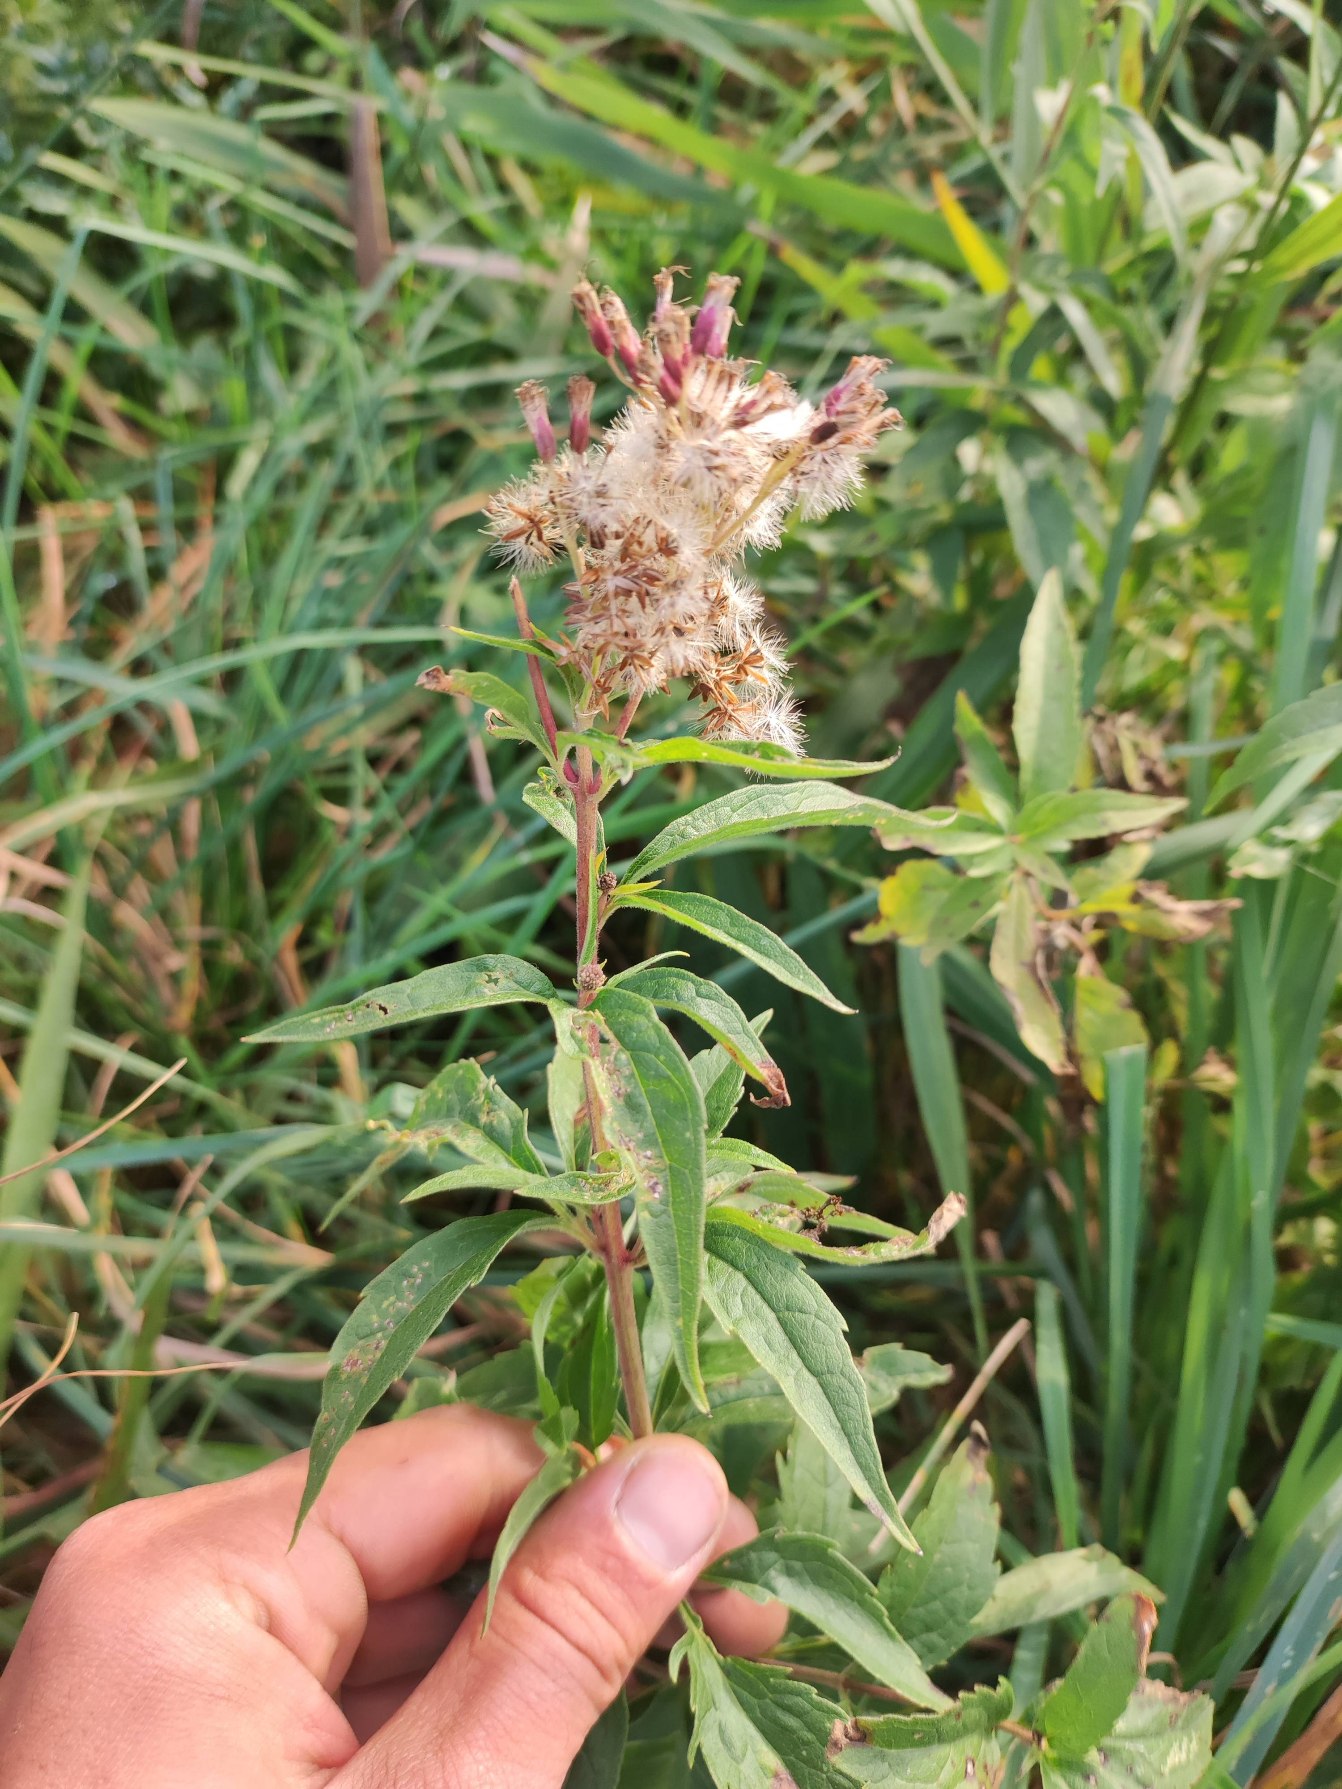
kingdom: Plantae
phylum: Tracheophyta
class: Magnoliopsida
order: Asterales
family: Asteraceae
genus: Eupatorium
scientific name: Eupatorium cannabinum
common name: Hjortetrøst
